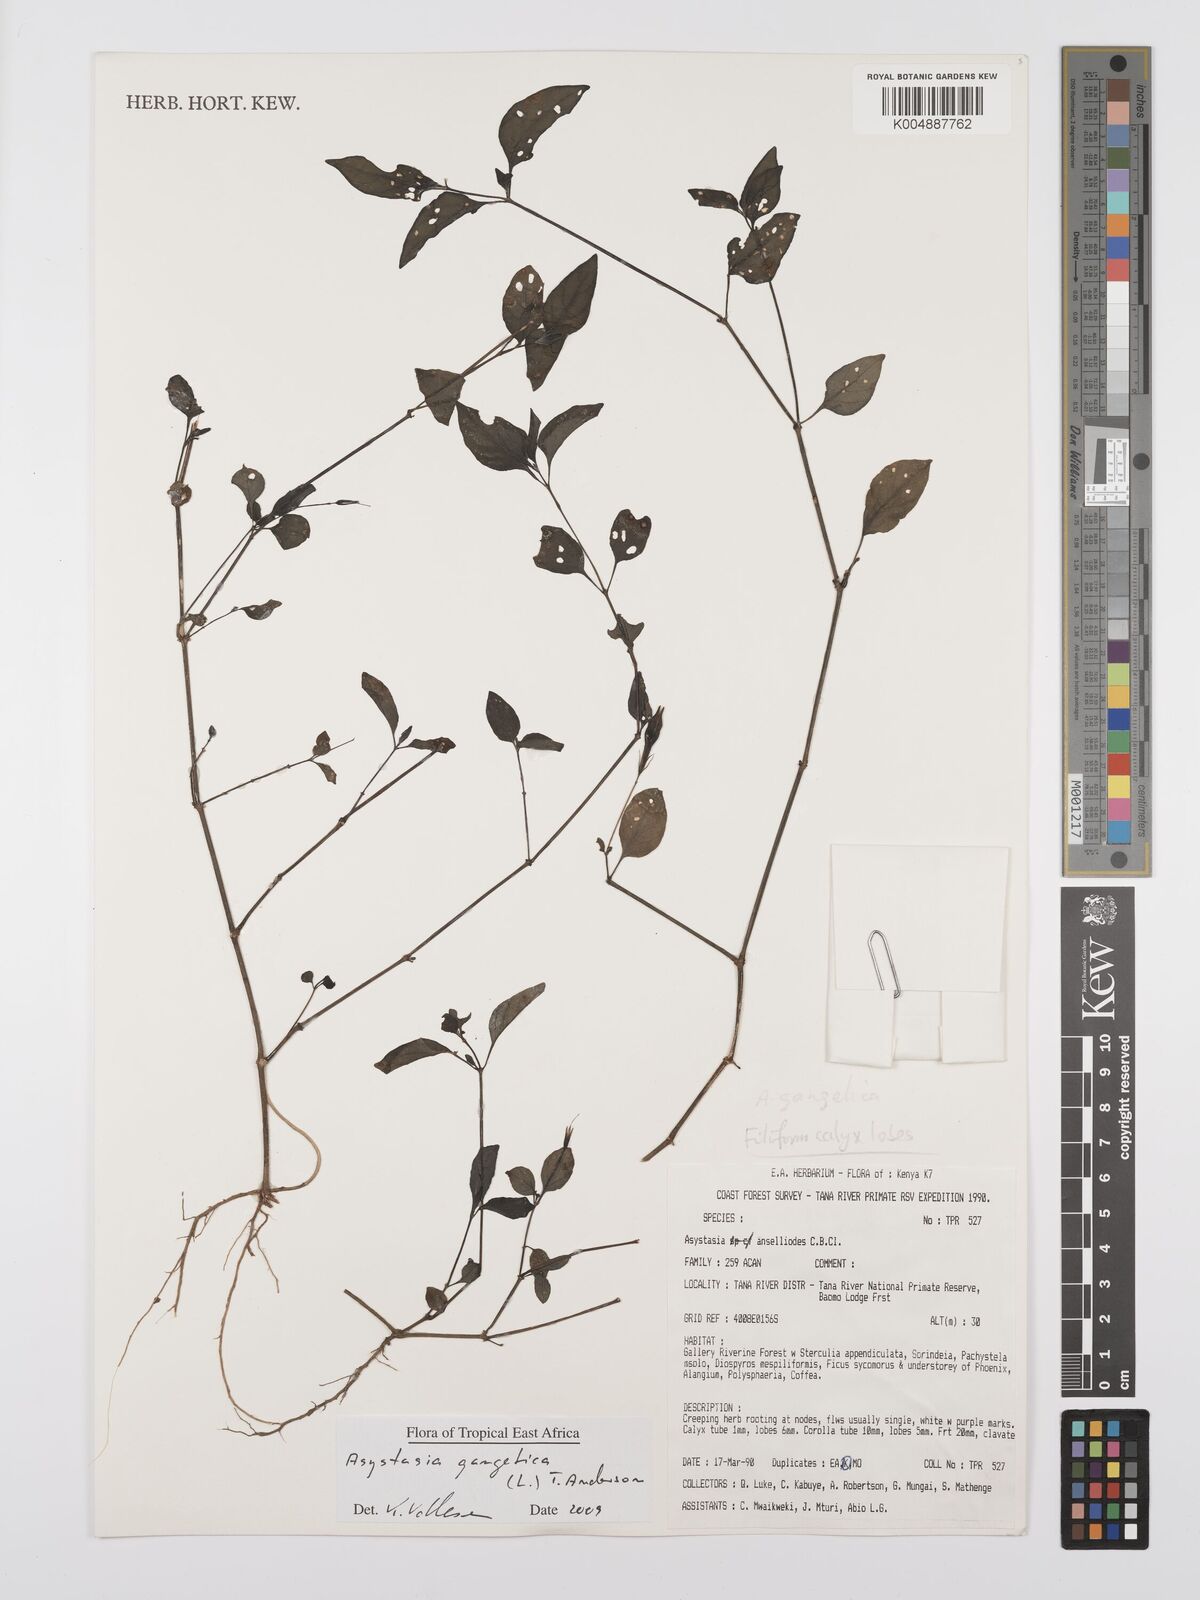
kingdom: Plantae
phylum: Tracheophyta
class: Magnoliopsida
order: Lamiales
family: Acanthaceae
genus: Asystasia
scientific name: Asystasia gangetica
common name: Chinese violet
